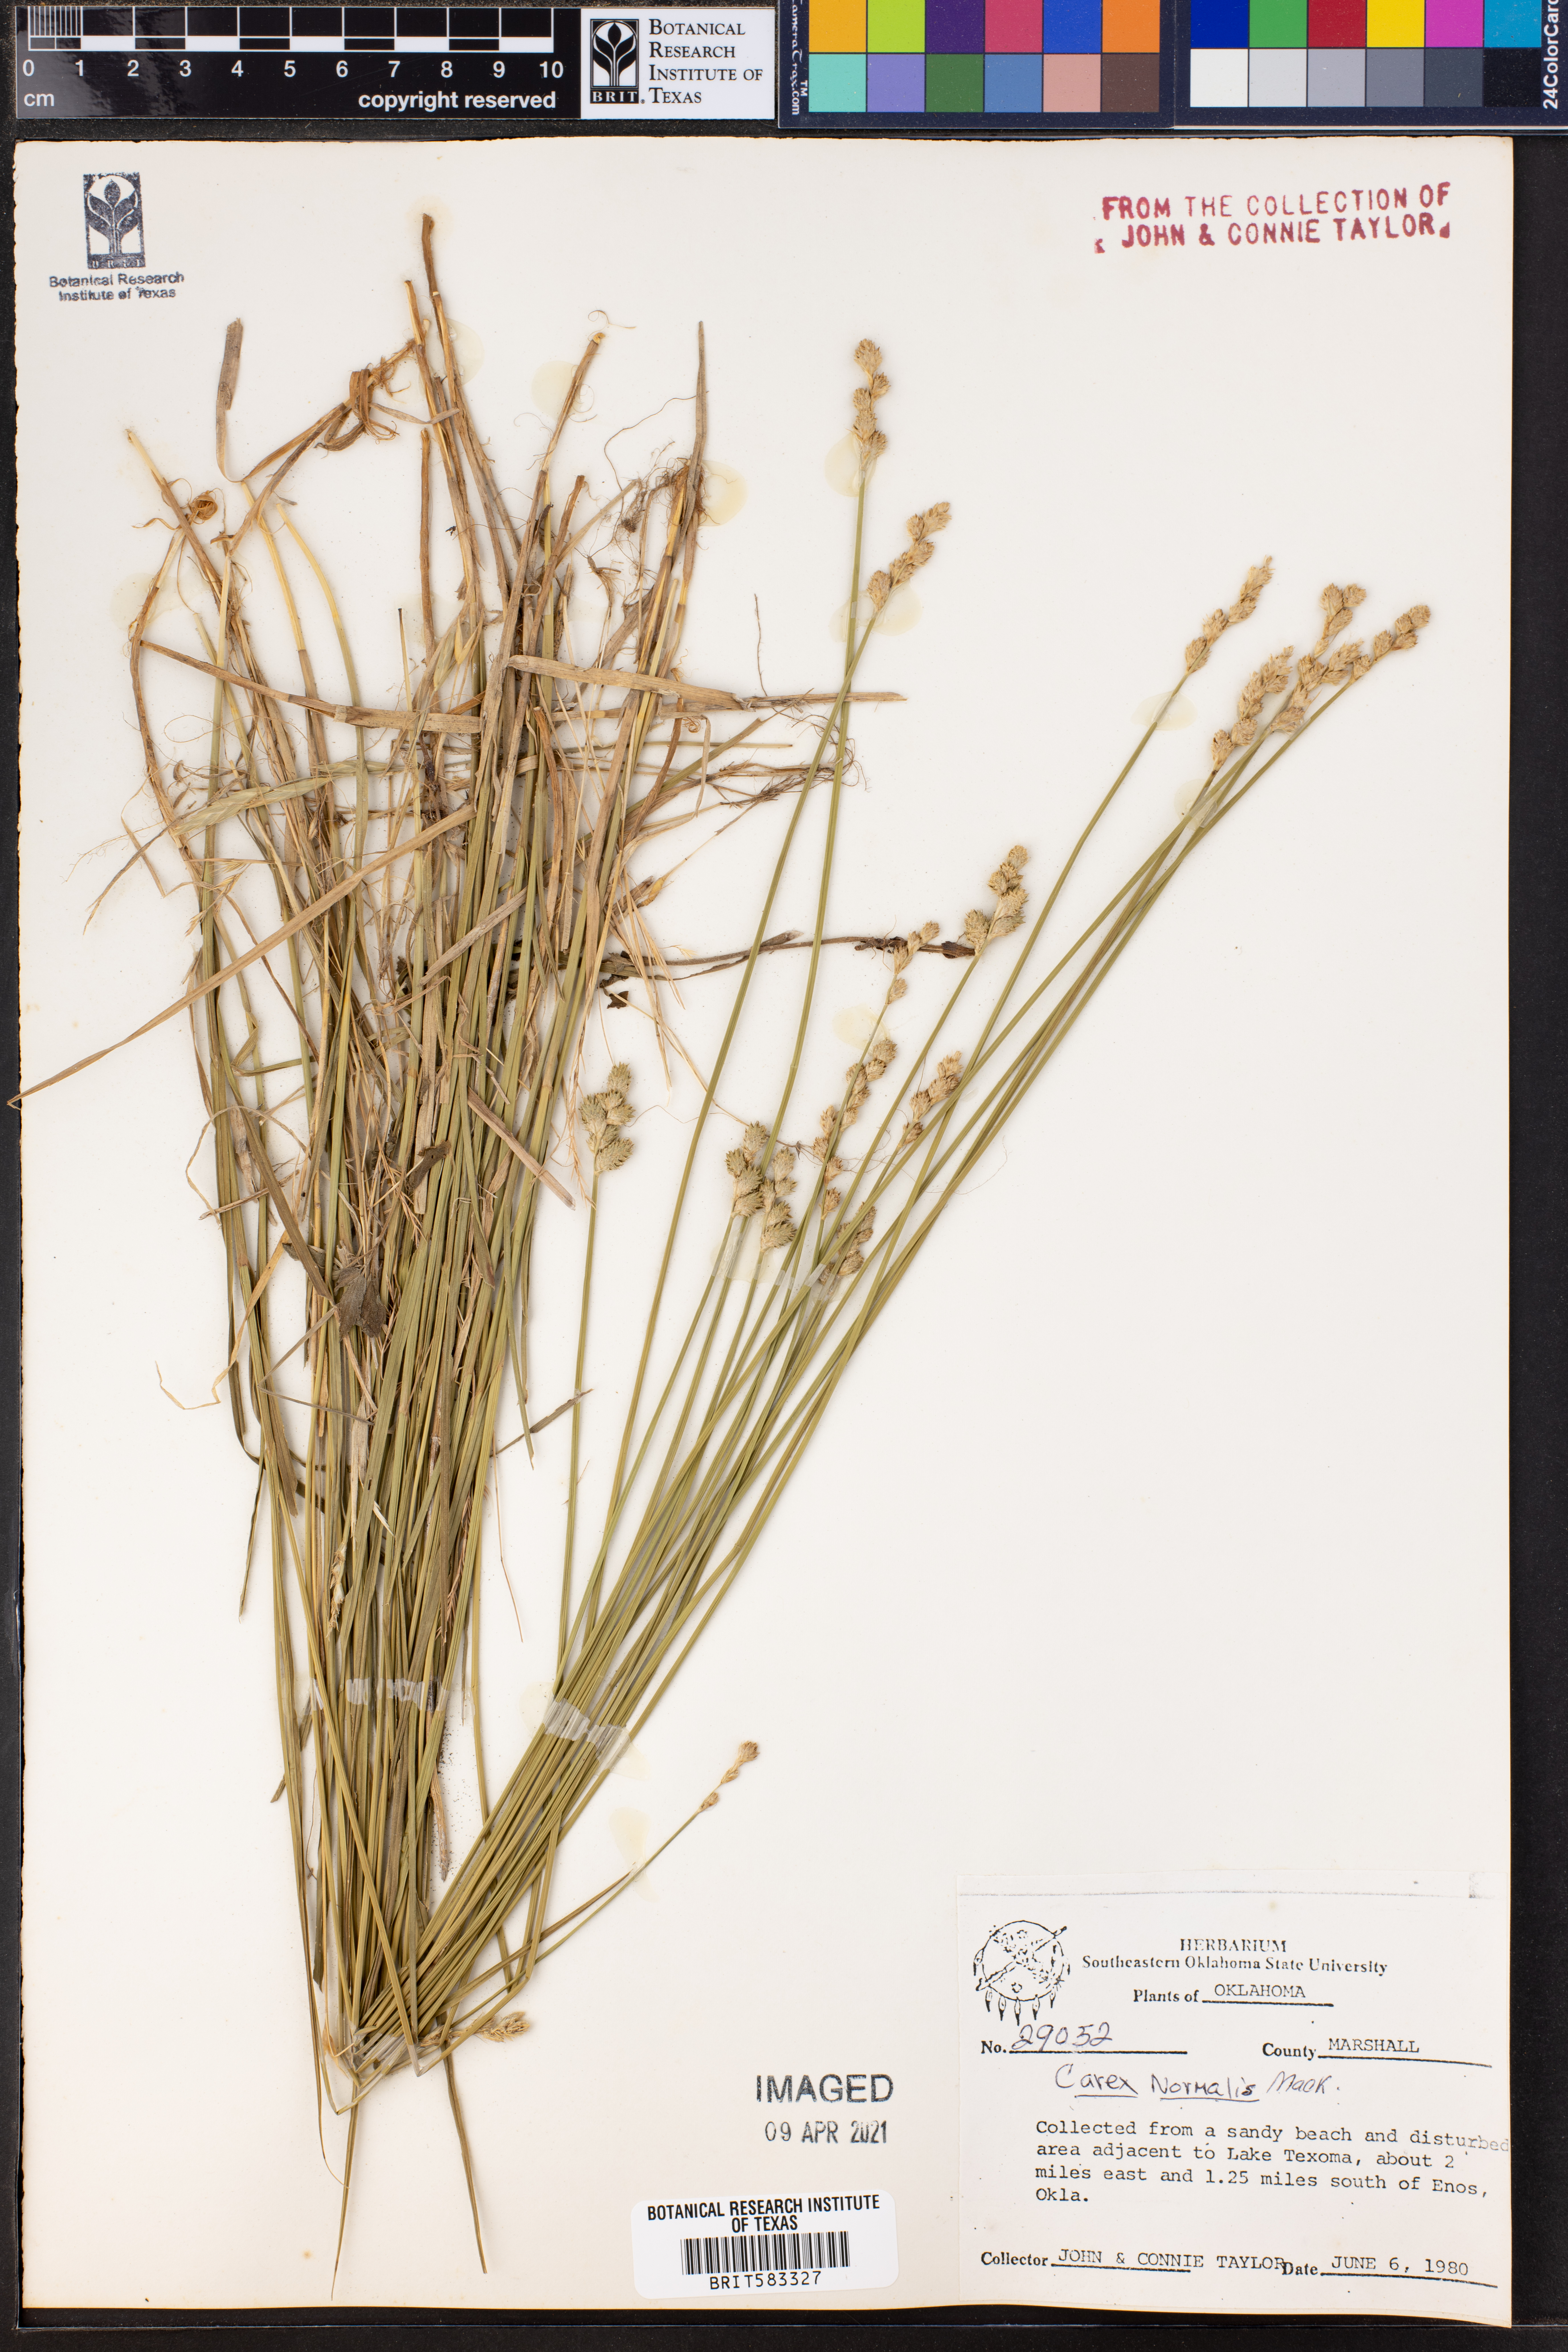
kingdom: Plantae
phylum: Tracheophyta
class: Liliopsida
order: Poales
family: Cyperaceae
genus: Carex
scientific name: Carex normalis
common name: Greater straw sedge
